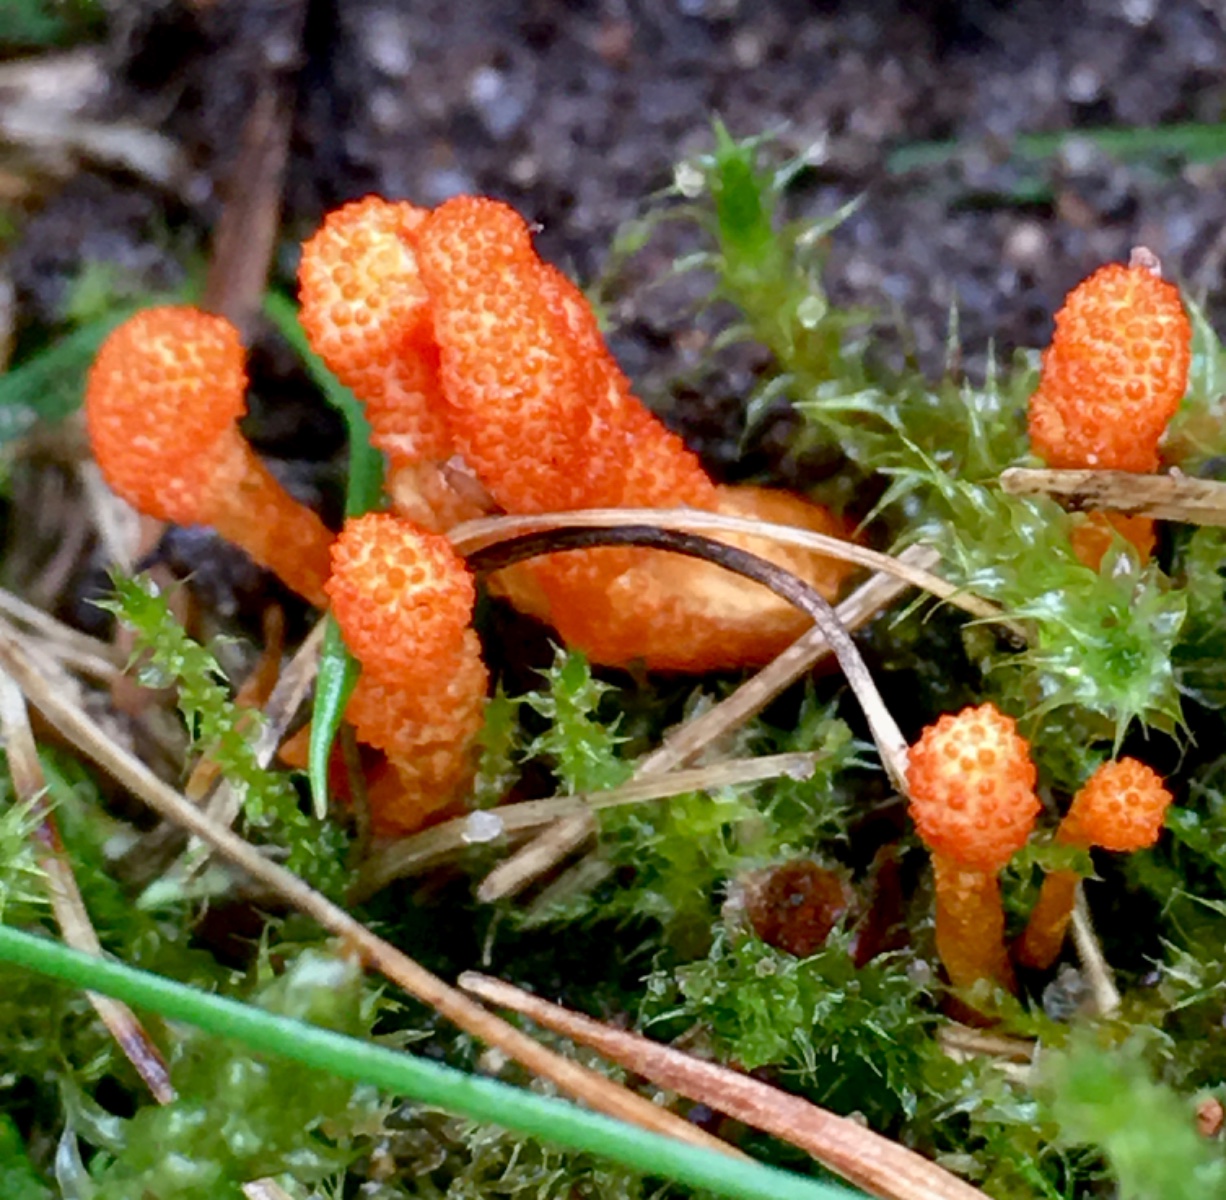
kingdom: Fungi
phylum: Ascomycota
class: Sordariomycetes
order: Hypocreales
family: Cordycipitaceae
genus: Cordyceps
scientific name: Cordyceps militaris
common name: puppe-snyltekølle
